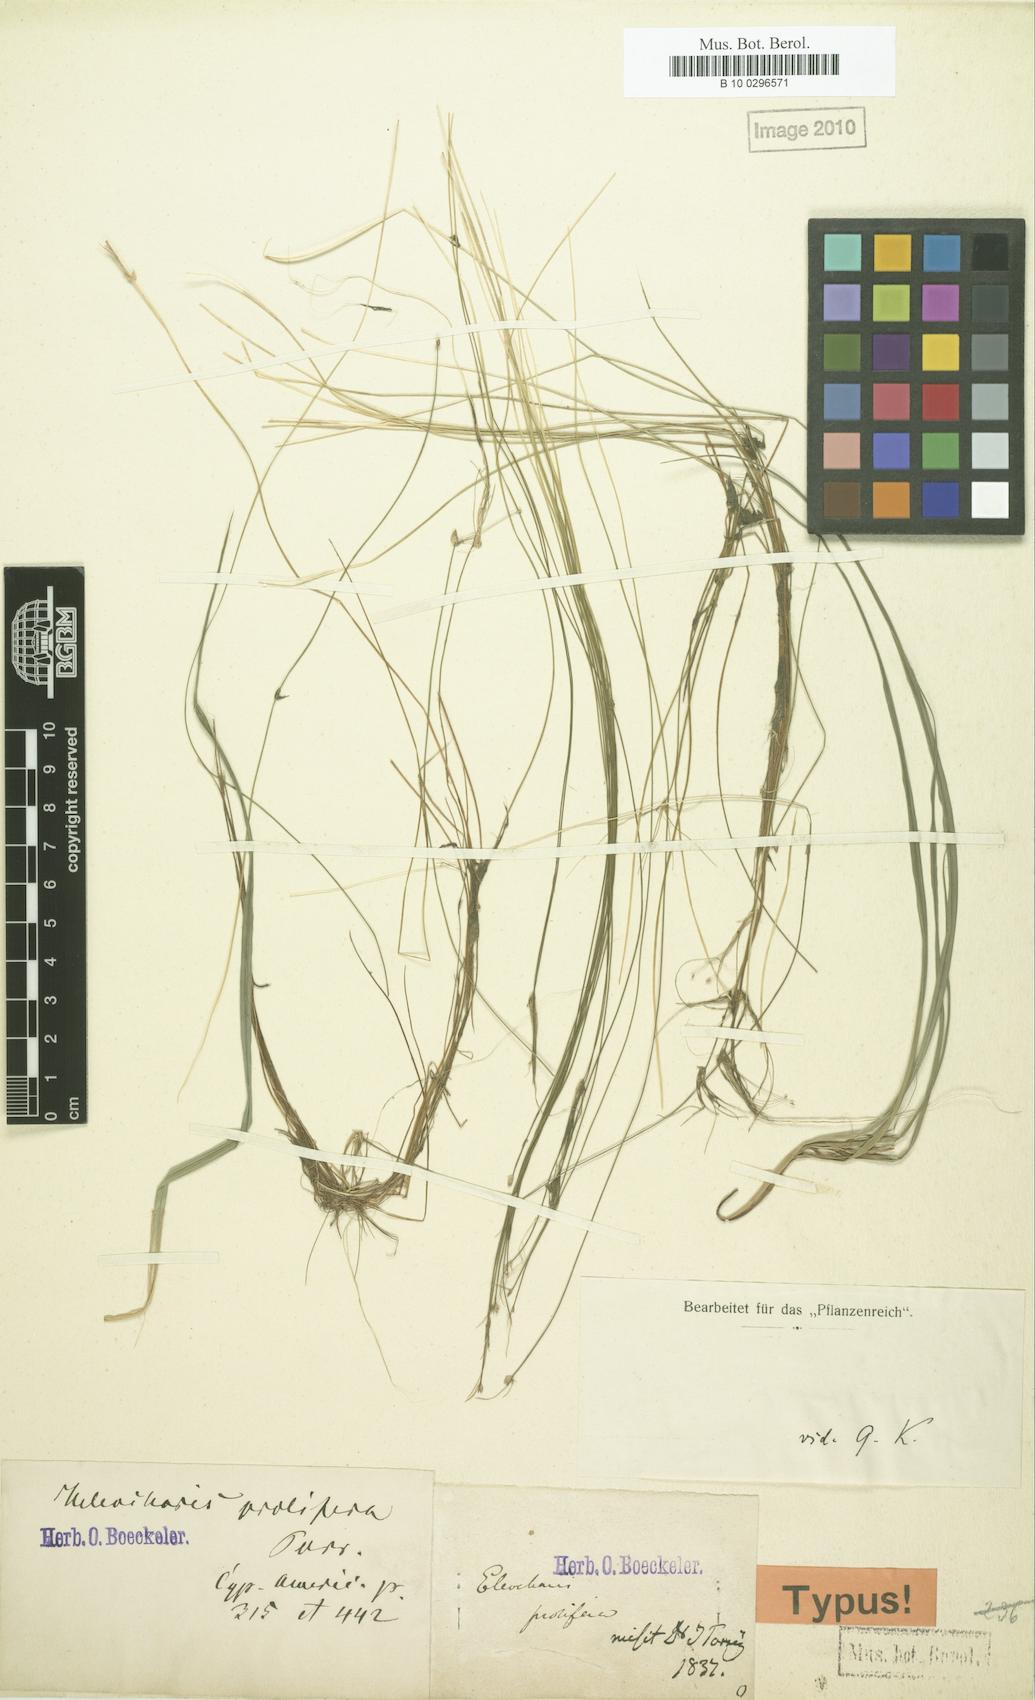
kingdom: Plantae
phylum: Tracheophyta
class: Liliopsida
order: Poales
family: Cyperaceae
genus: Eleocharis
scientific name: Eleocharis minima
